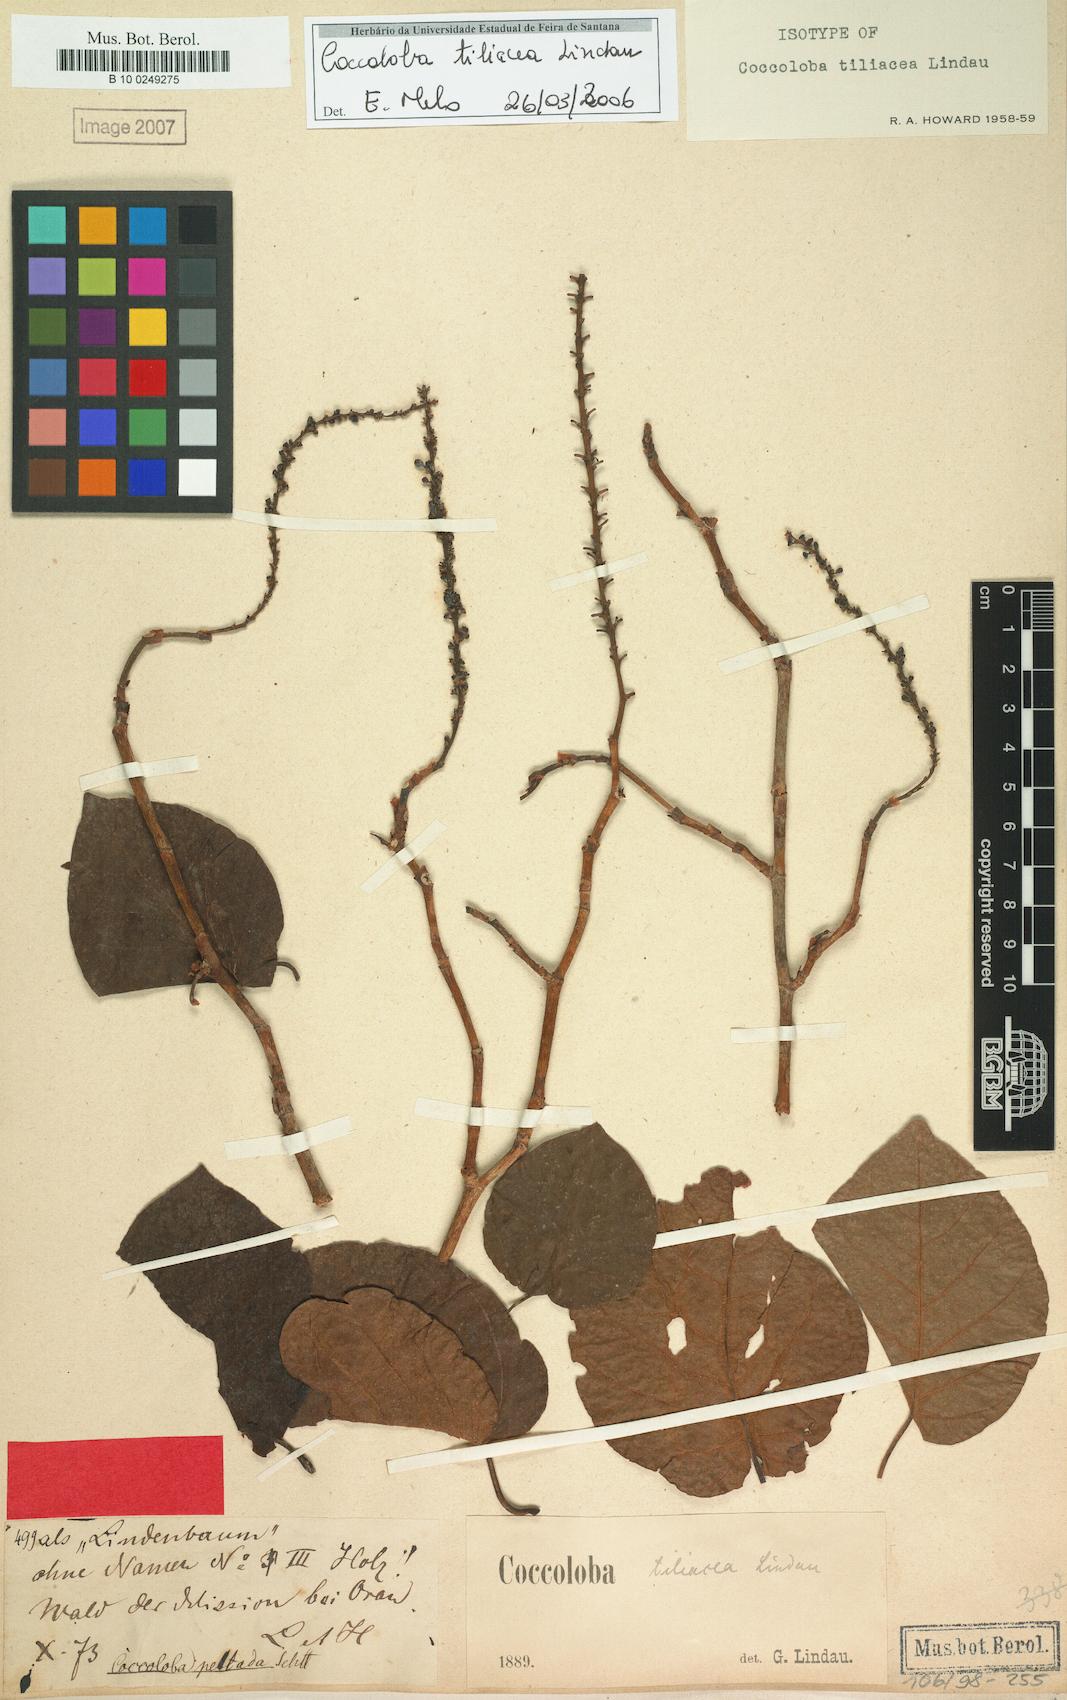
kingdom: Plantae
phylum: Tracheophyta
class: Magnoliopsida
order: Caryophyllales
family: Polygonaceae
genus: Coccoloba
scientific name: Coccoloba tiliacea
